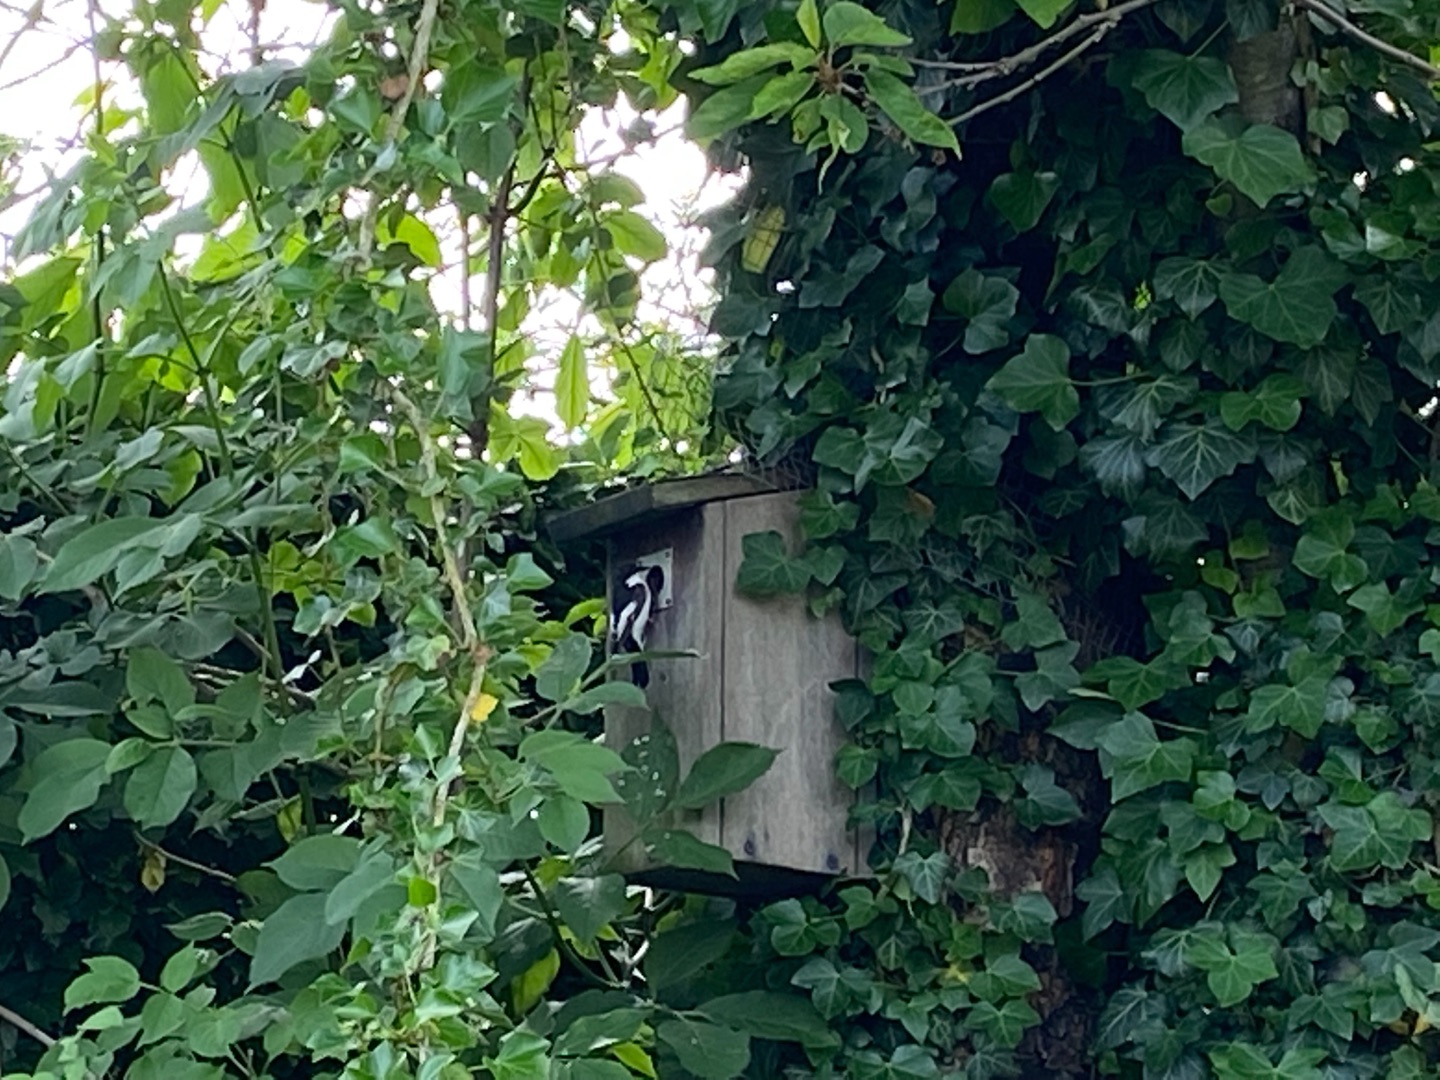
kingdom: Animalia
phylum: Chordata
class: Aves
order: Passeriformes
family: Muscicapidae
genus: Ficedula
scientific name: Ficedula hypoleuca
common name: Broget fluesnapper
